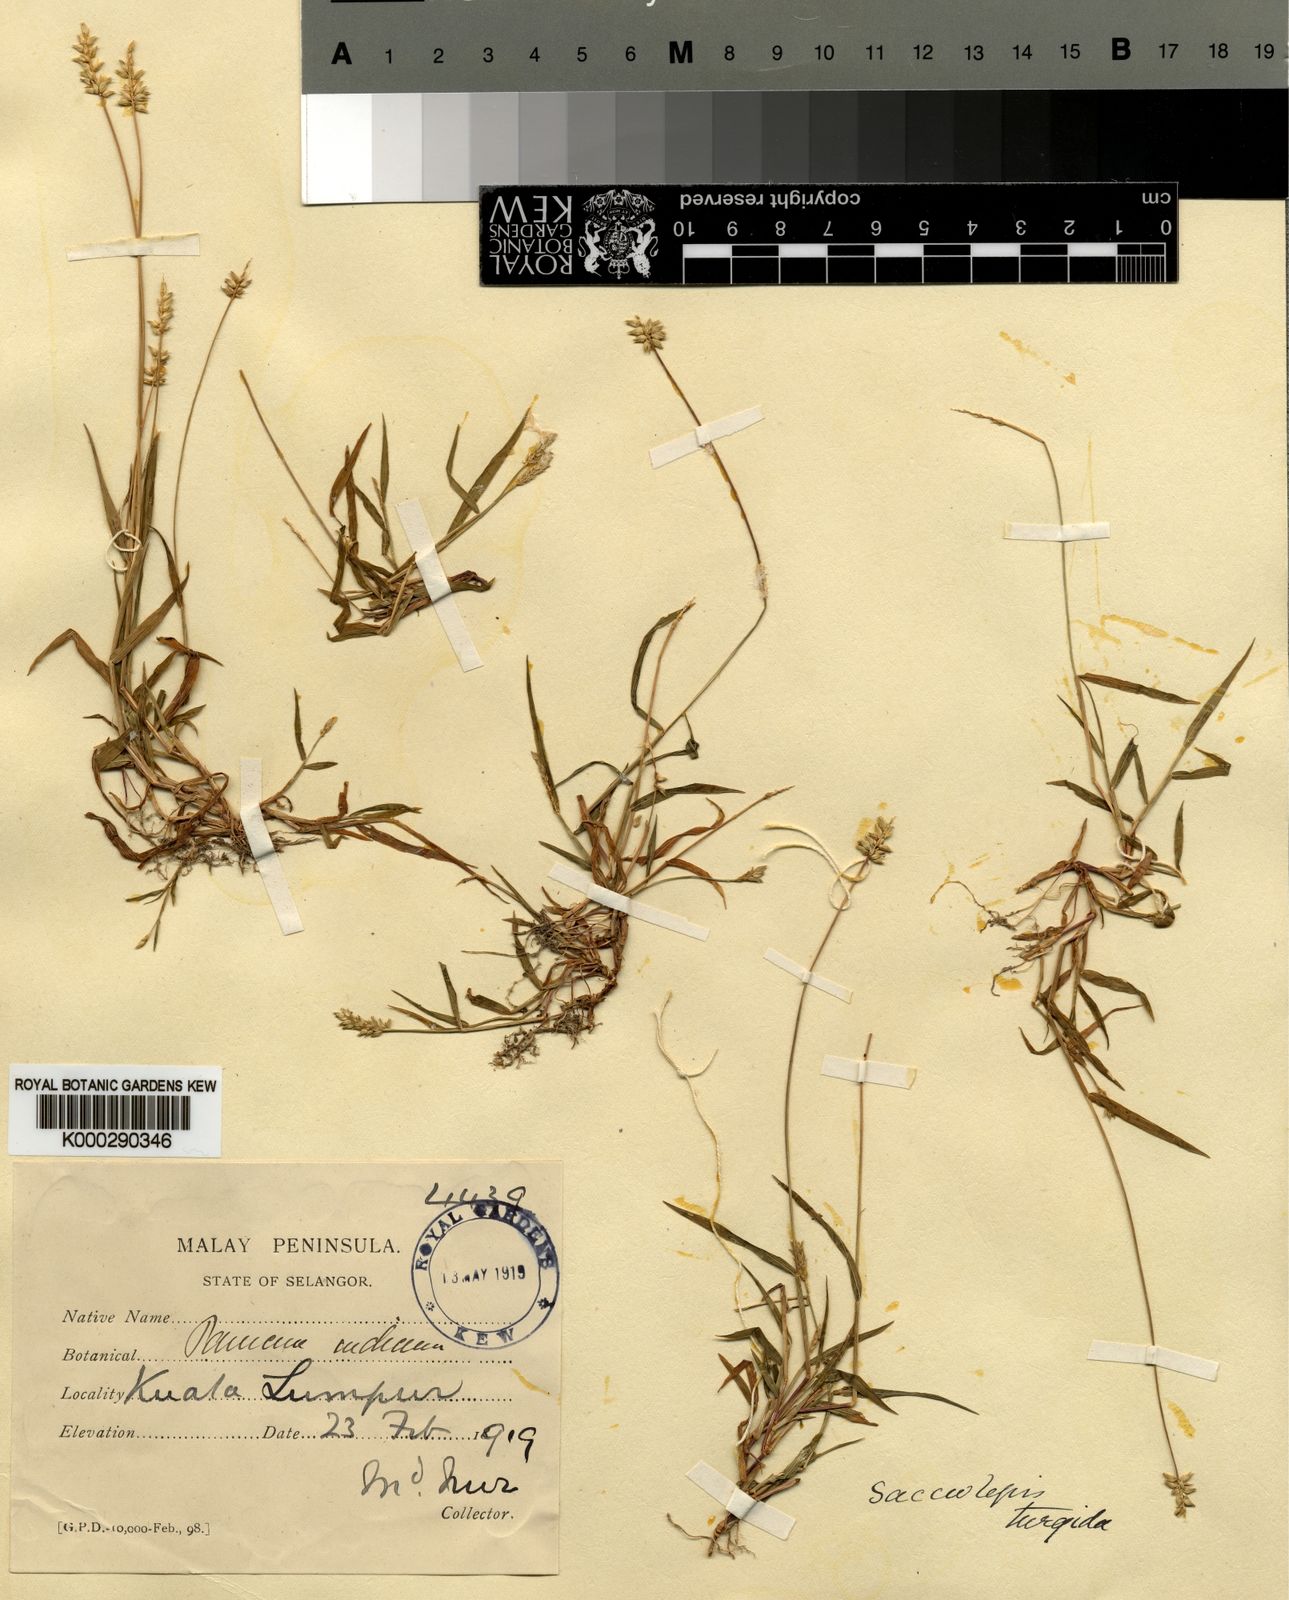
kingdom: Plantae
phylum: Tracheophyta
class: Liliopsida
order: Poales
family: Poaceae
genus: Sacciolepis
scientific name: Sacciolepis indica
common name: Glenwoodgrass
